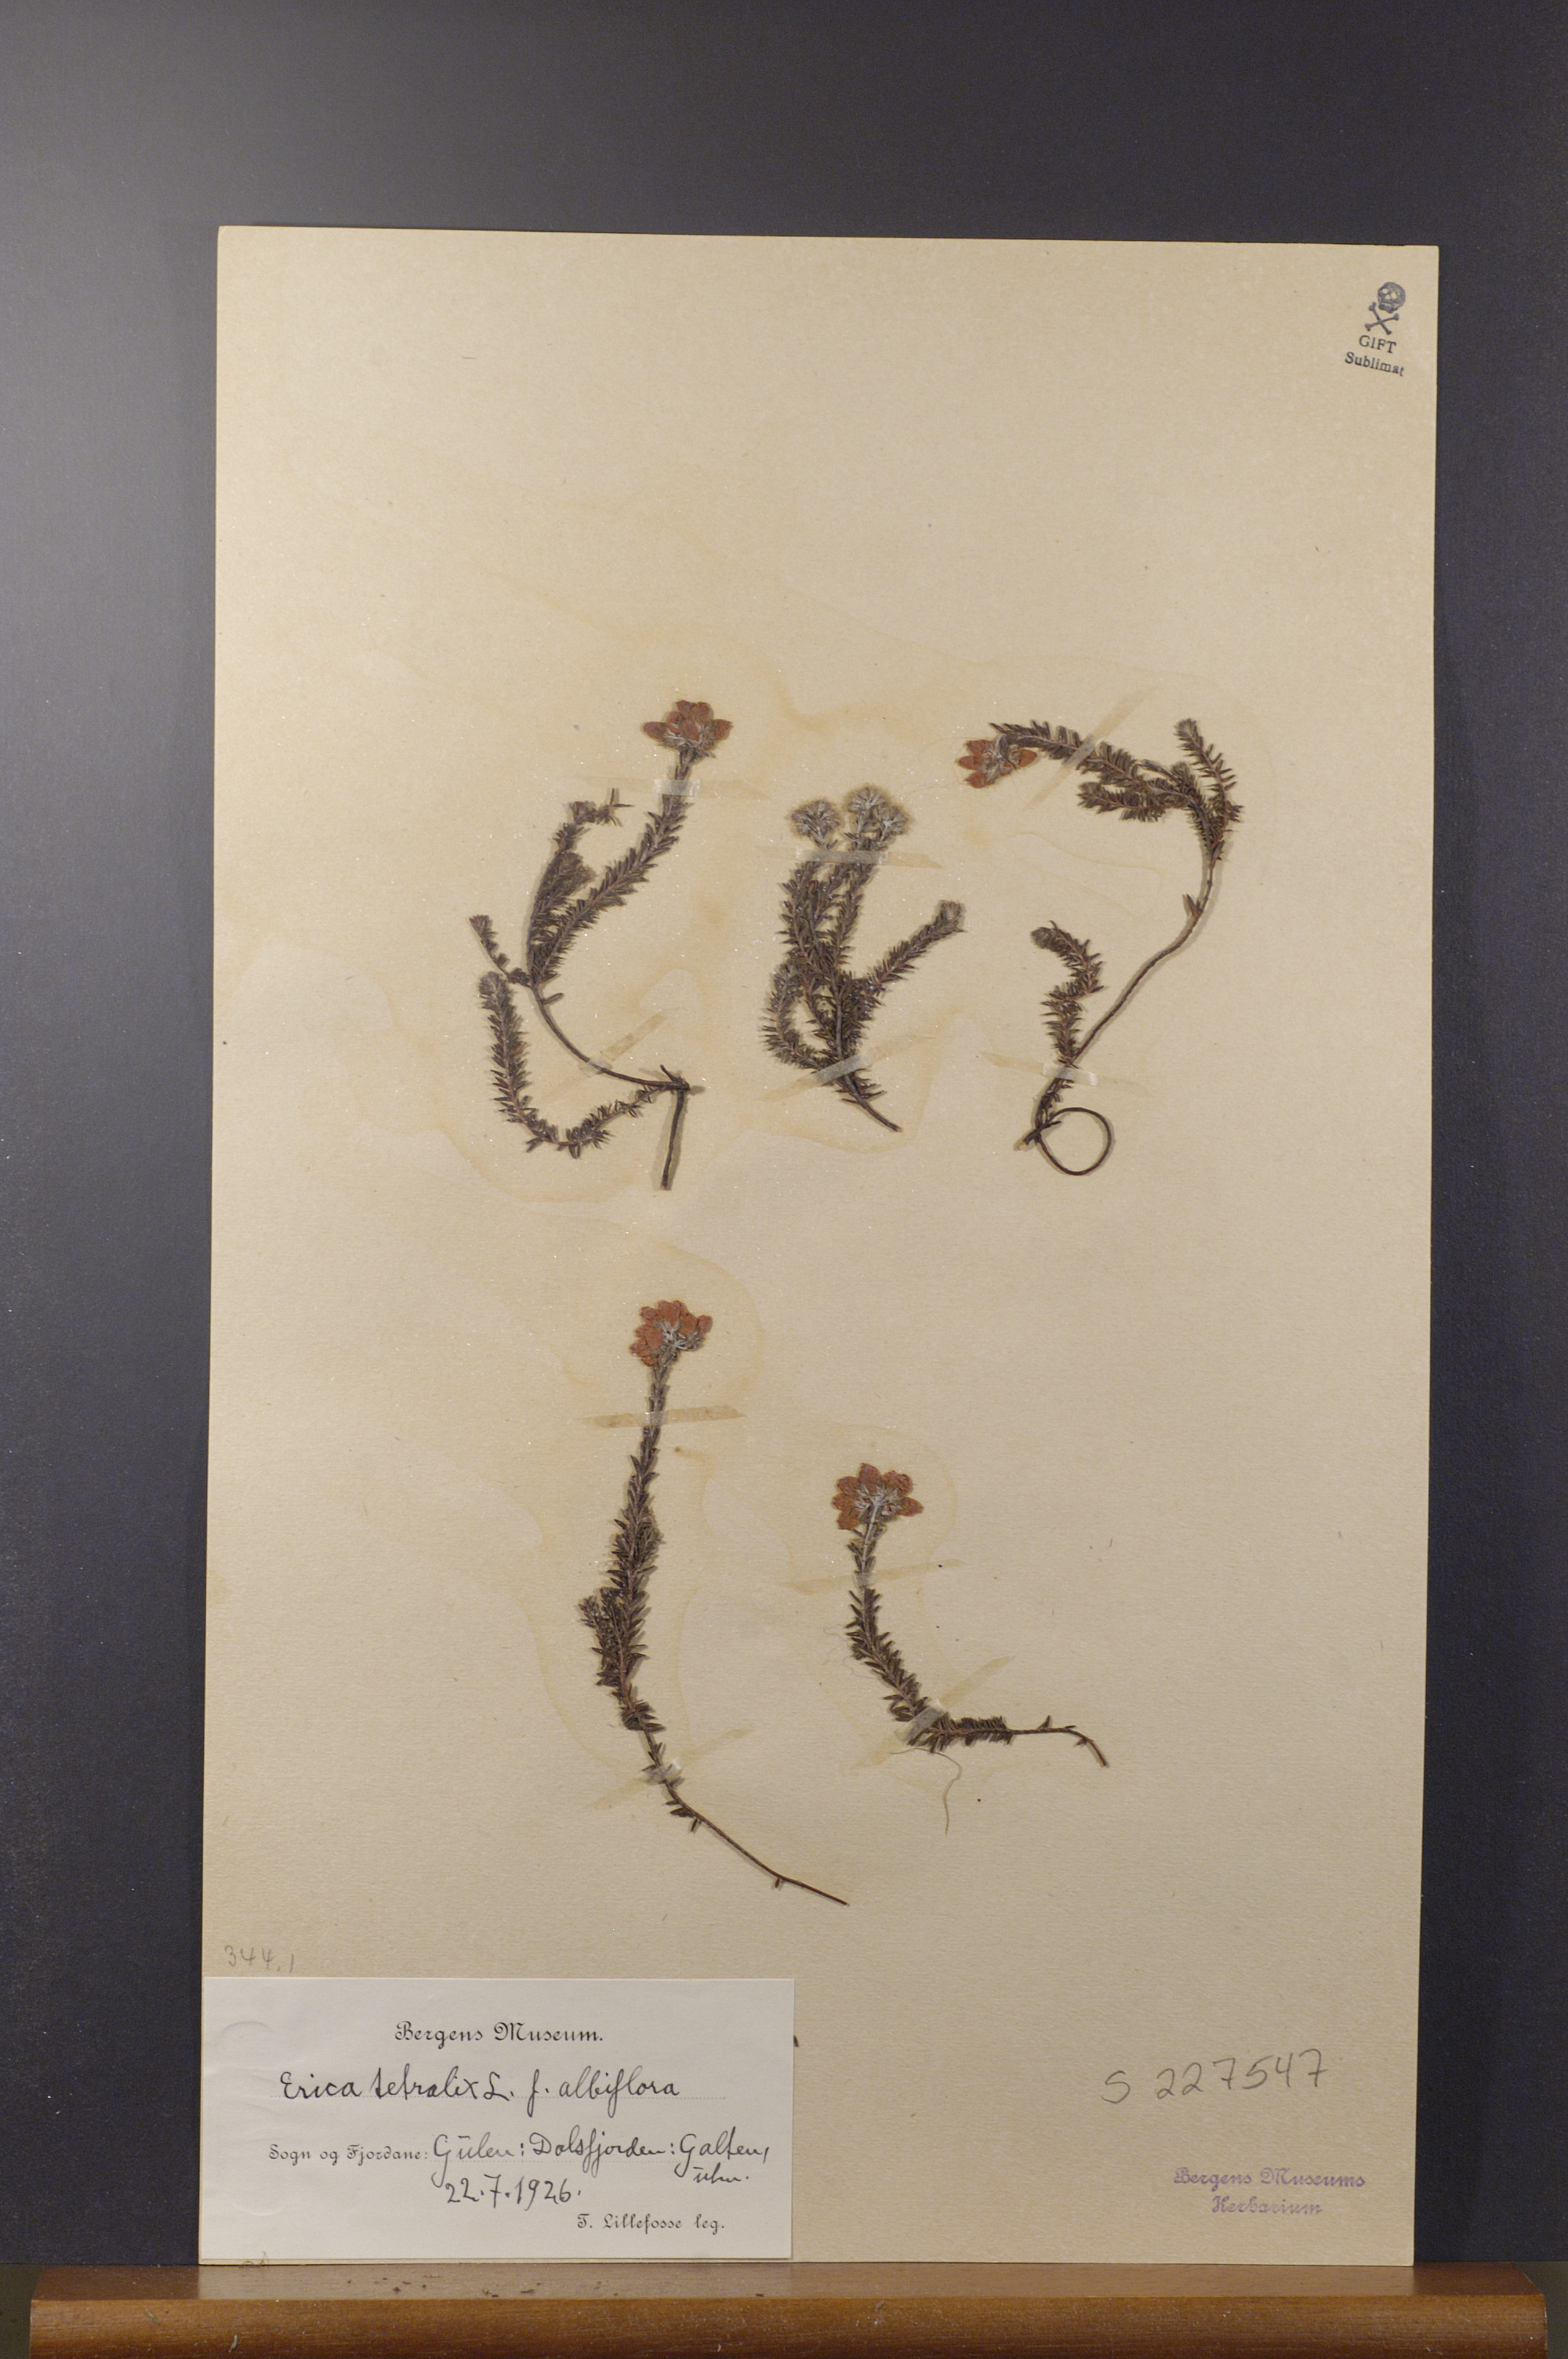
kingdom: Plantae
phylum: Tracheophyta
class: Magnoliopsida
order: Ericales
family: Ericaceae
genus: Erica
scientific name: Erica tetralix
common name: Cross-leaved heath
